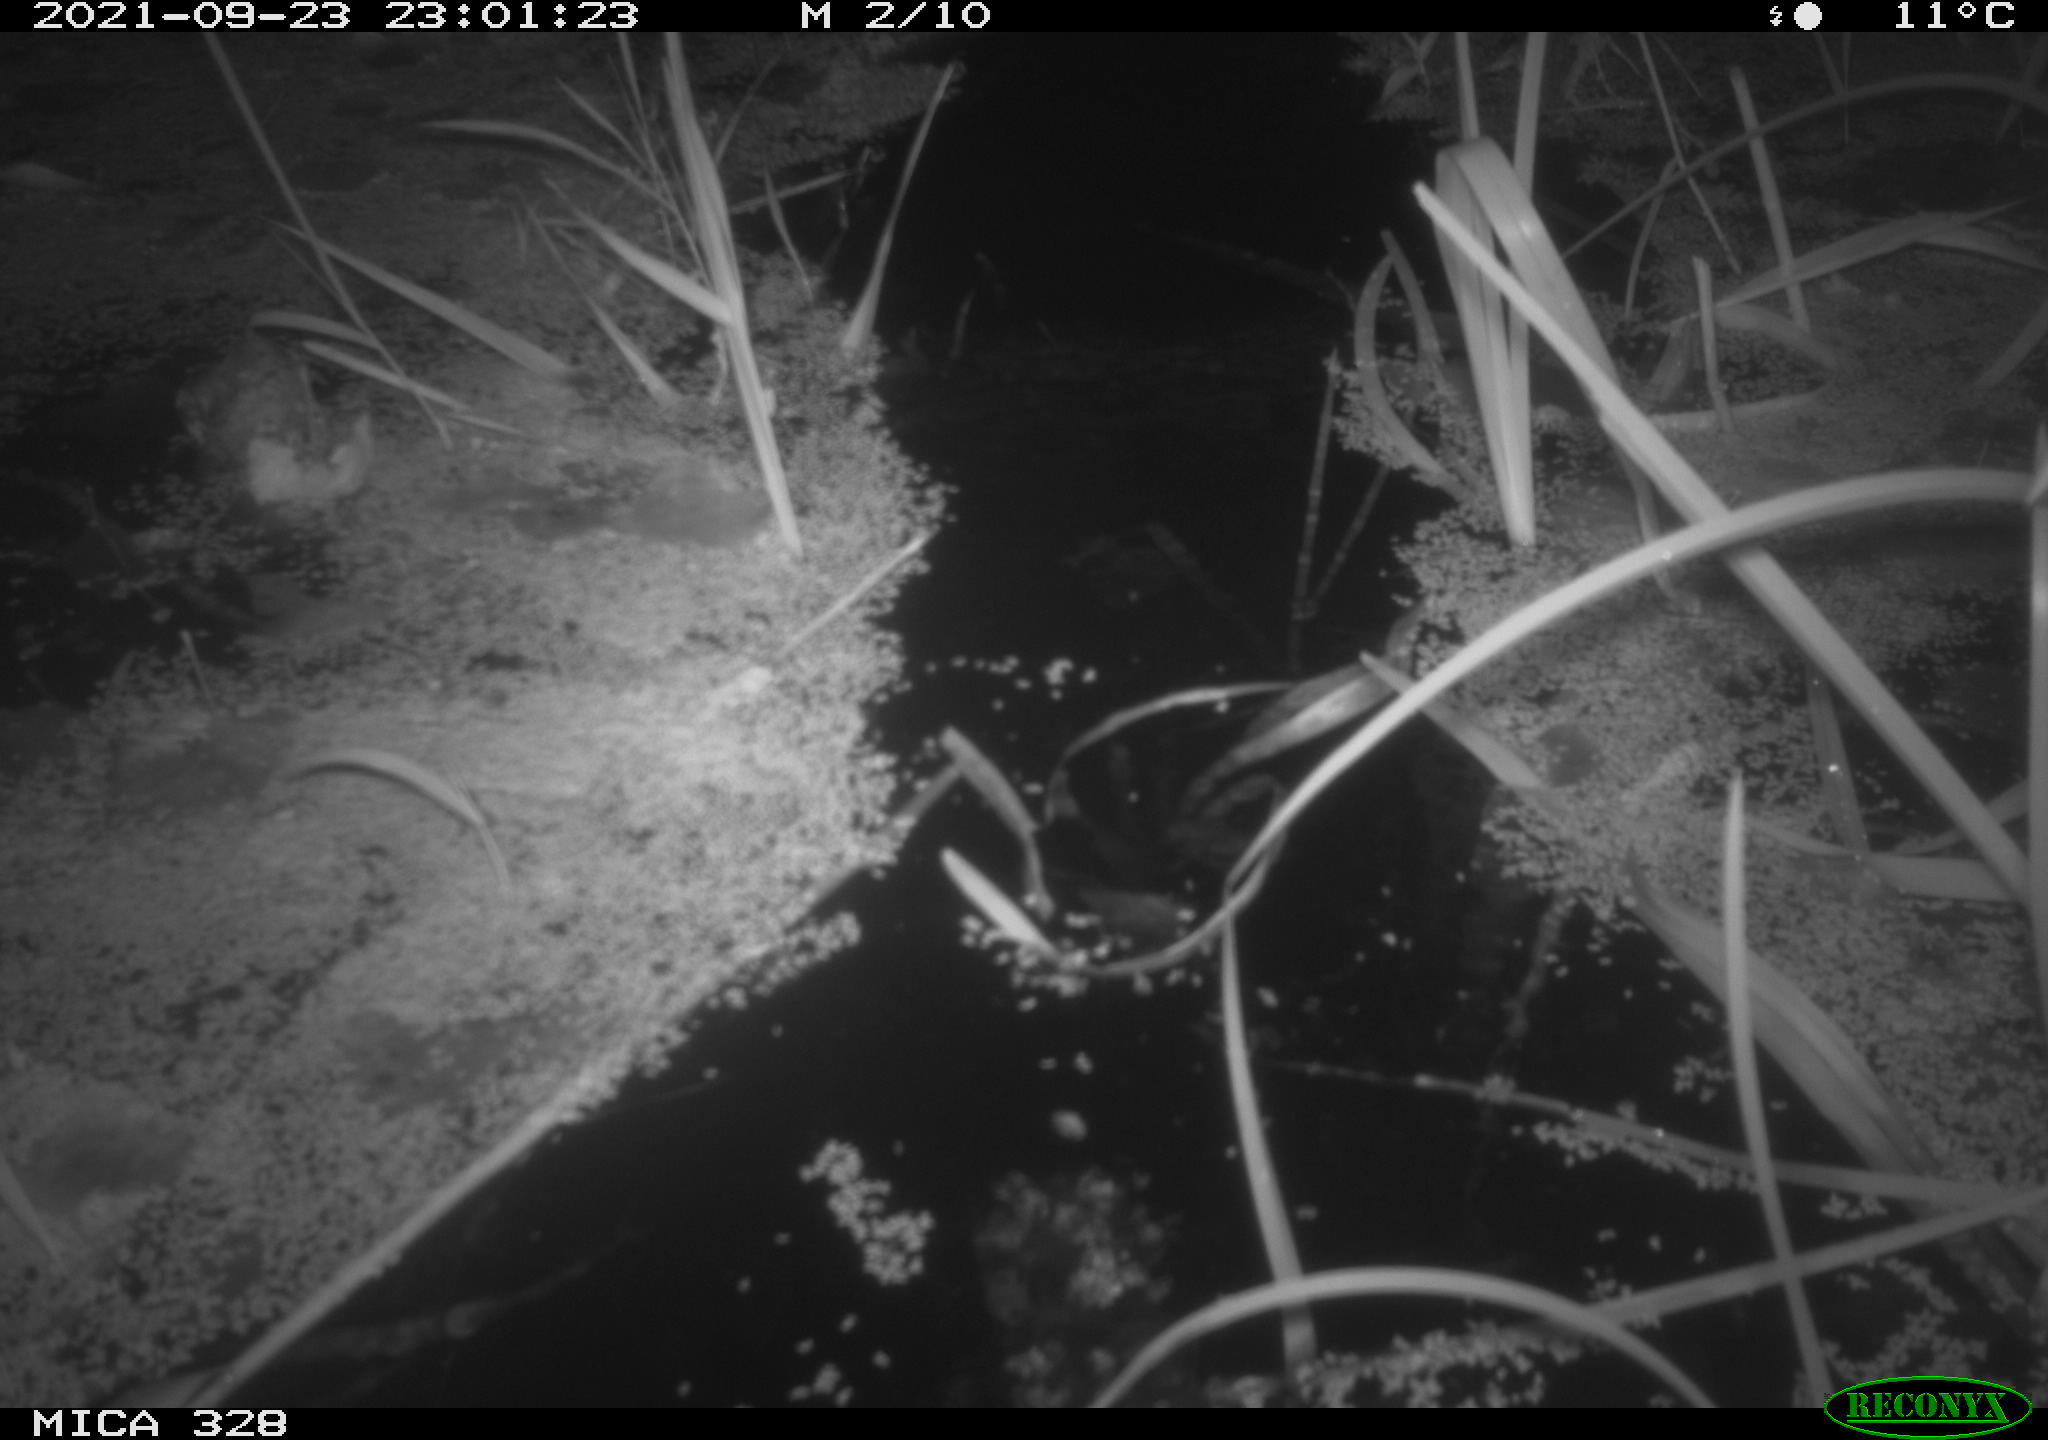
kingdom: Animalia
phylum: Chordata
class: Mammalia
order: Rodentia
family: Cricetidae
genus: Ondatra
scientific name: Ondatra zibethicus
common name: Muskrat
